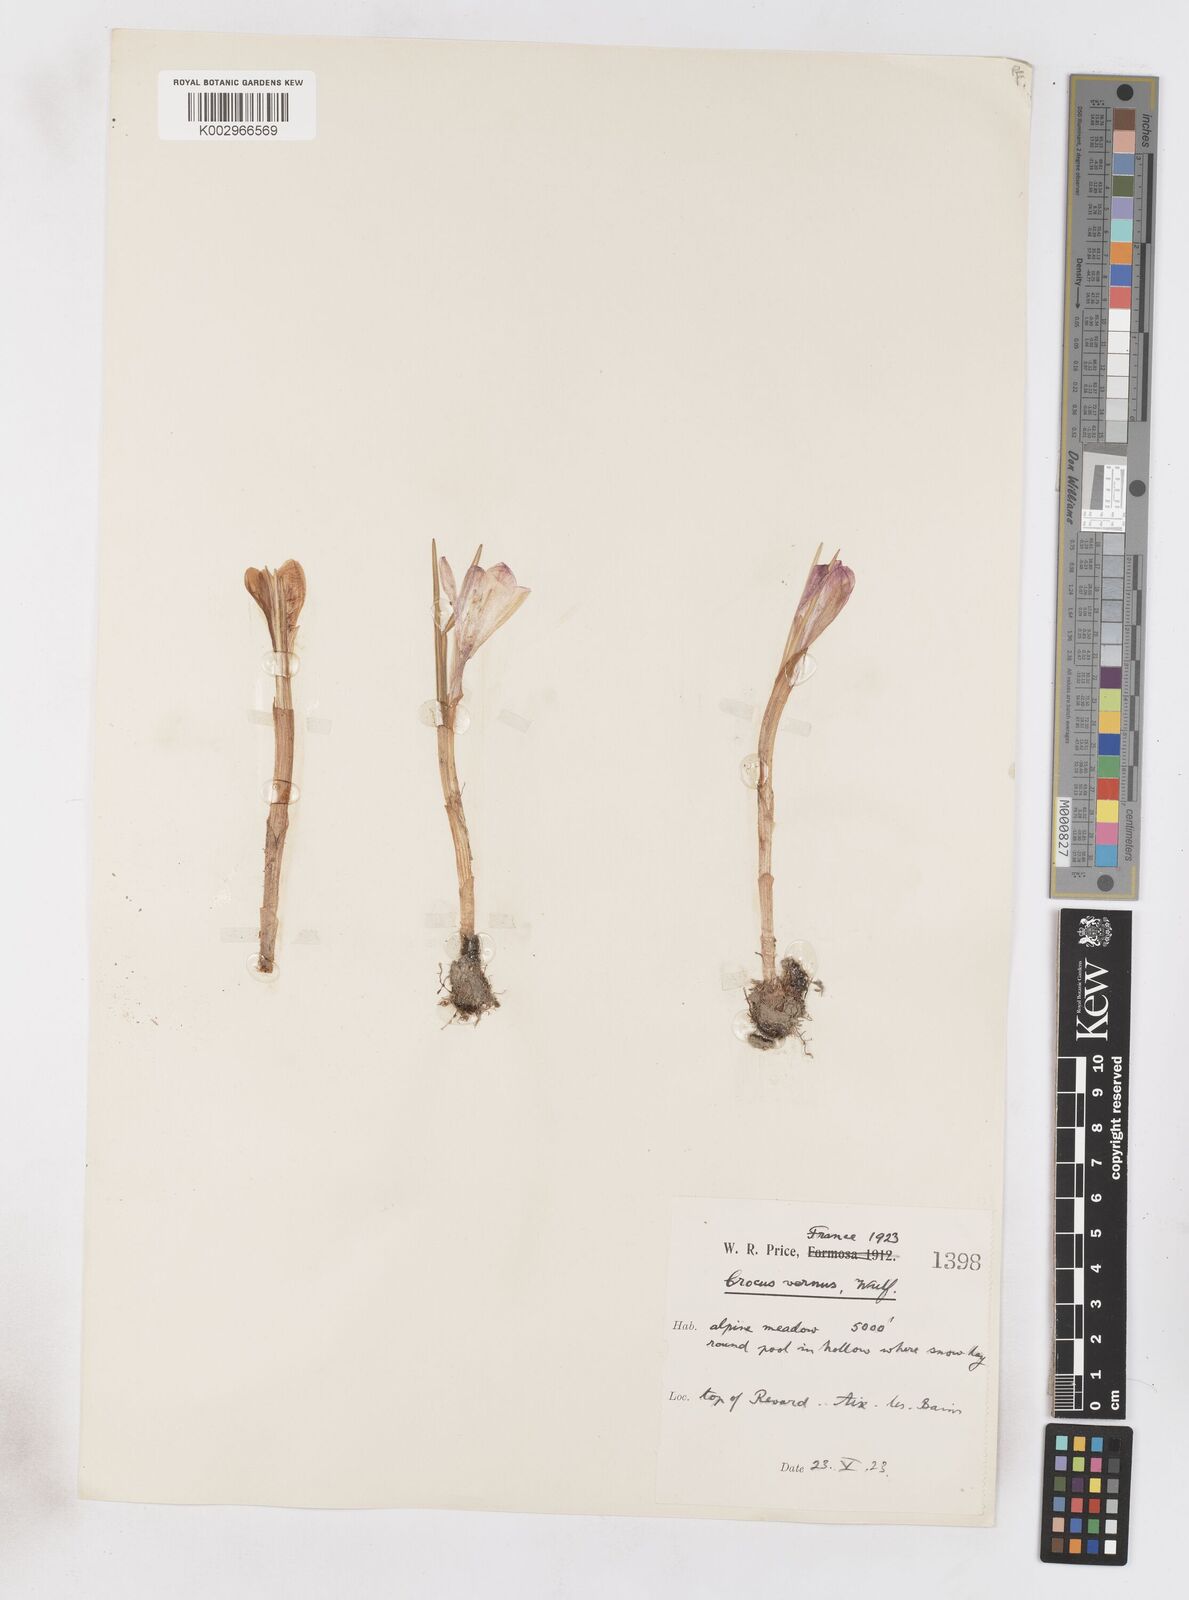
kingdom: Plantae
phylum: Tracheophyta
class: Liliopsida
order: Asparagales
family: Iridaceae
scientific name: Iridaceae
